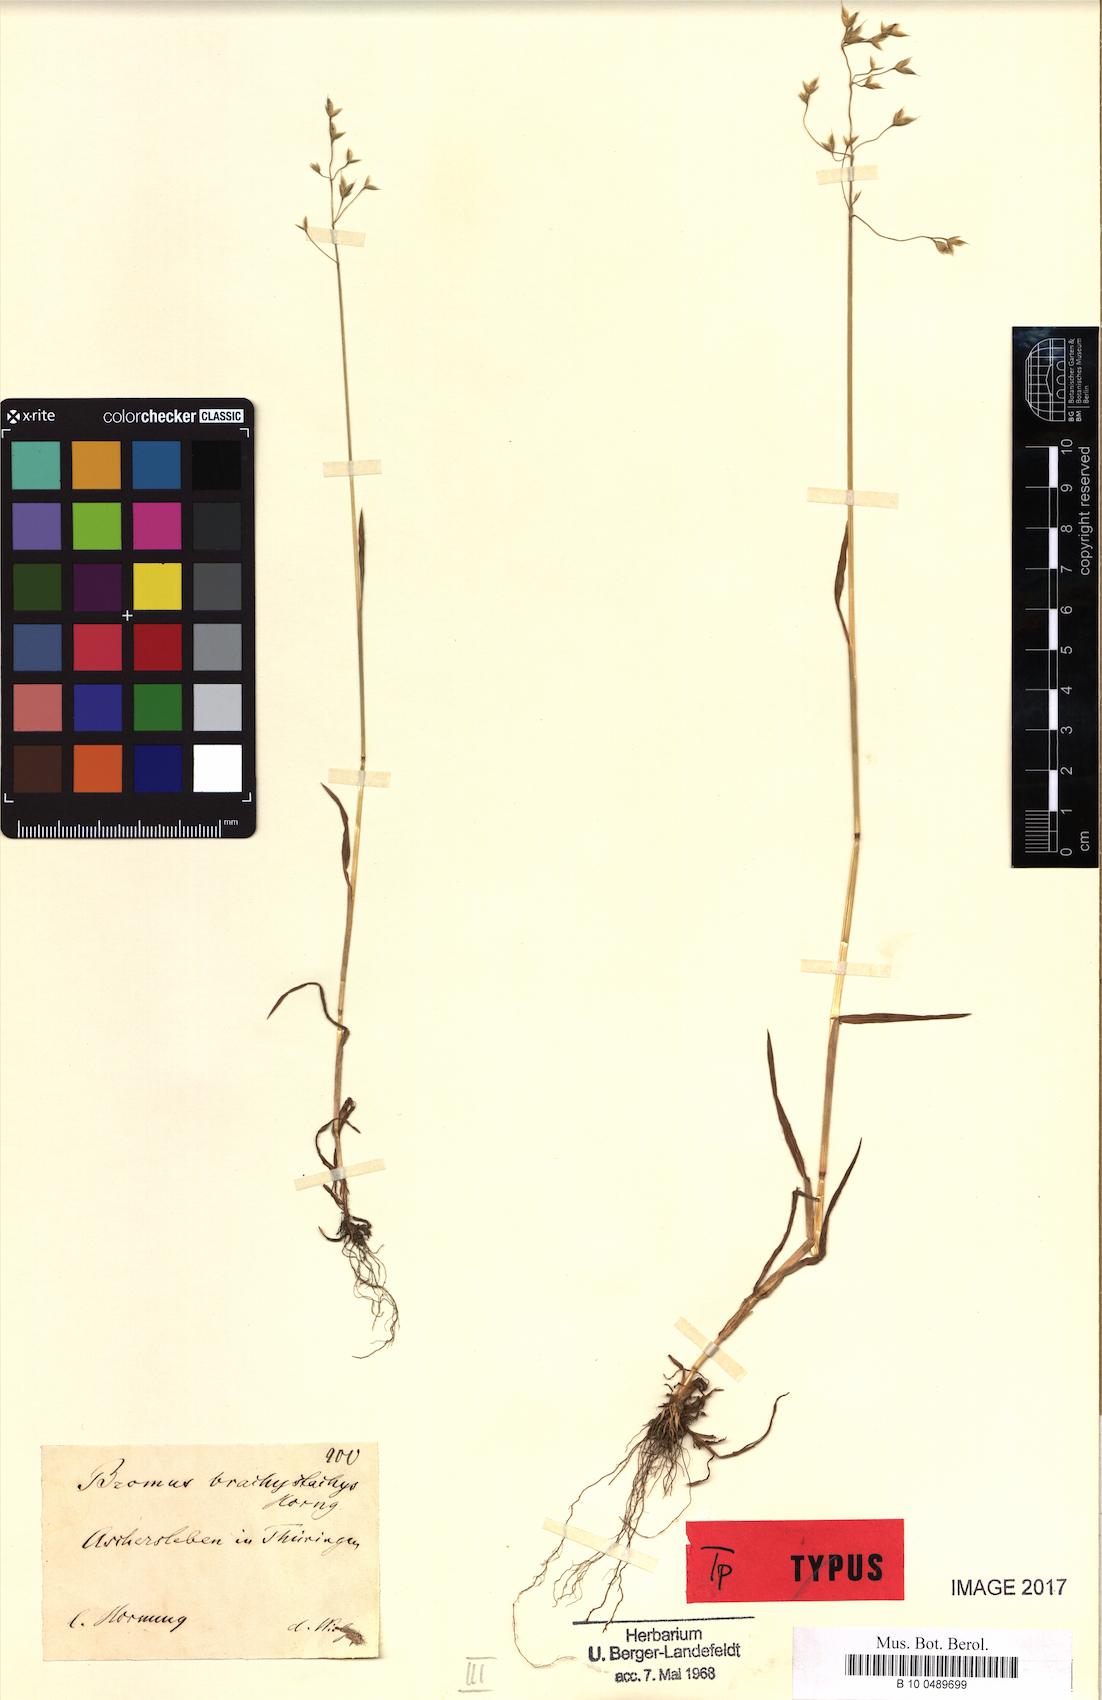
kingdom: Plantae
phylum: Tracheophyta
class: Liliopsida
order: Poales
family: Poaceae
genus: Bromus
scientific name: Bromus brachystachys
